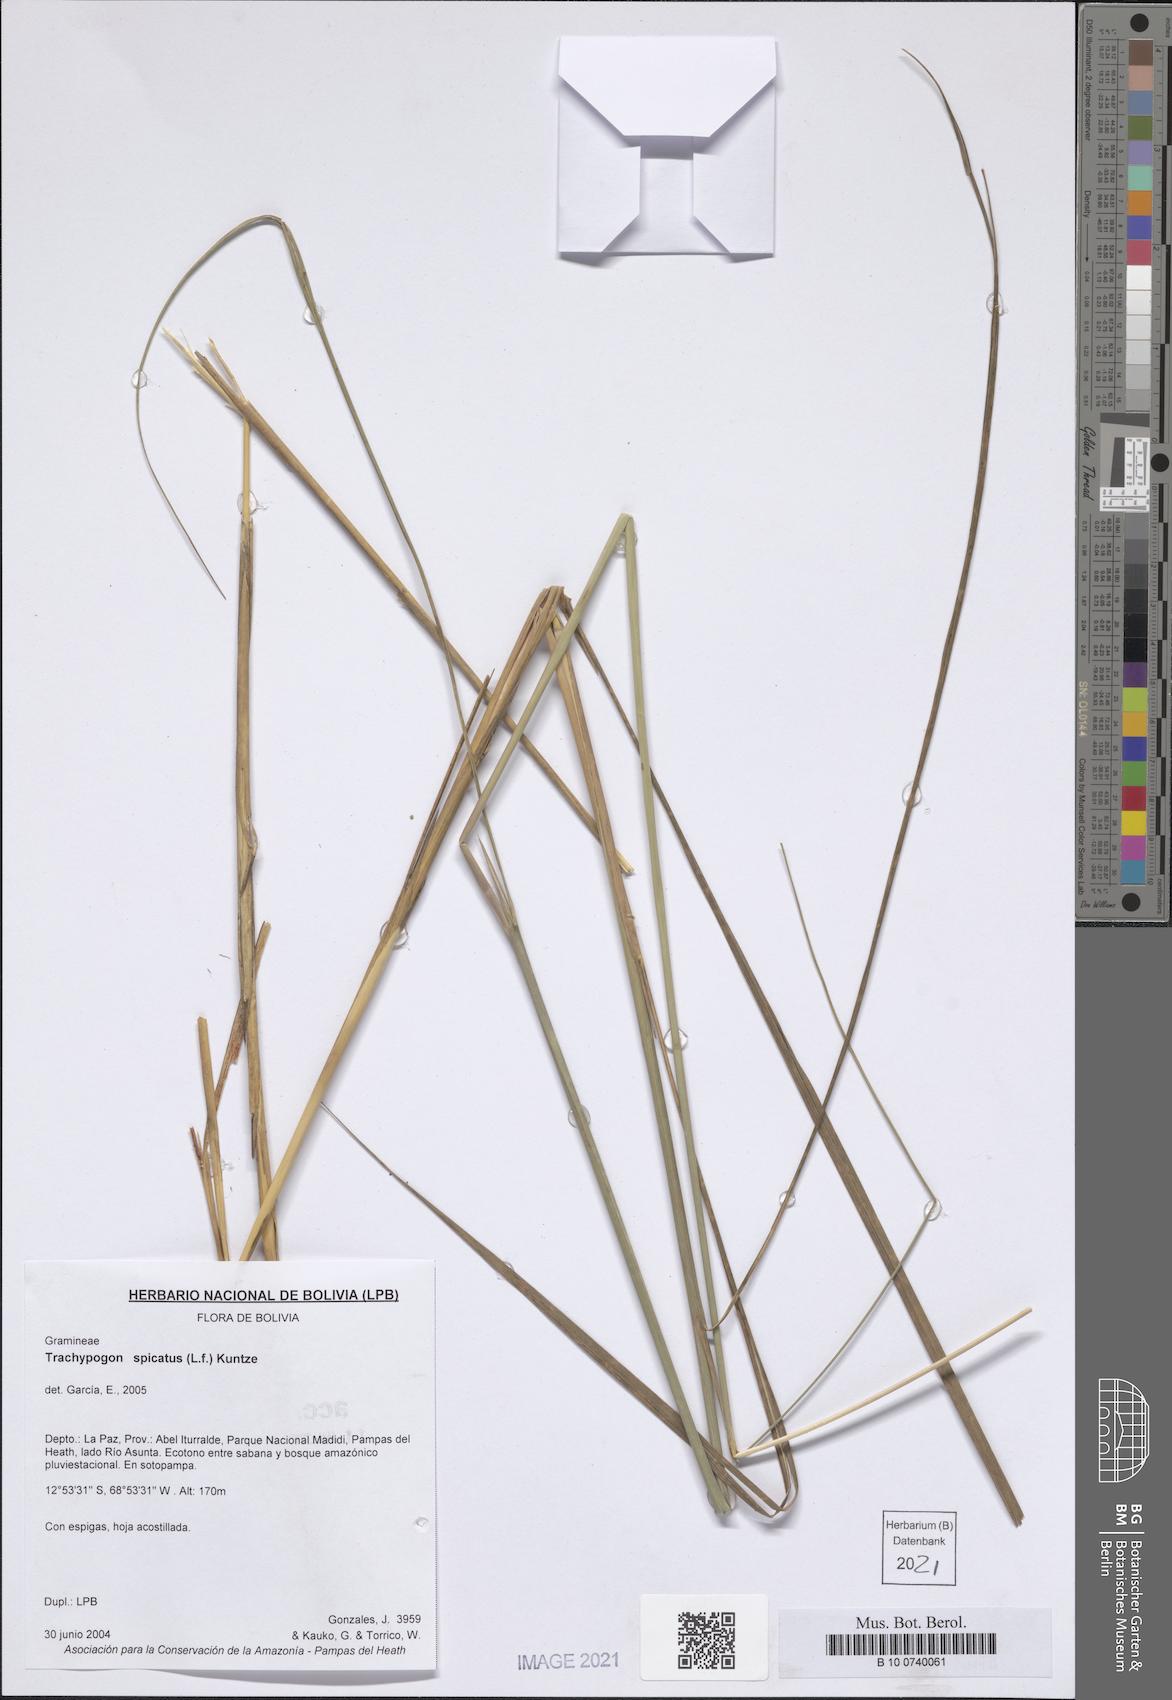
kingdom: Plantae
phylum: Tracheophyta
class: Liliopsida
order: Poales
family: Poaceae
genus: Trachypogon
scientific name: Trachypogon spicatus
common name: Crinkle-awn
